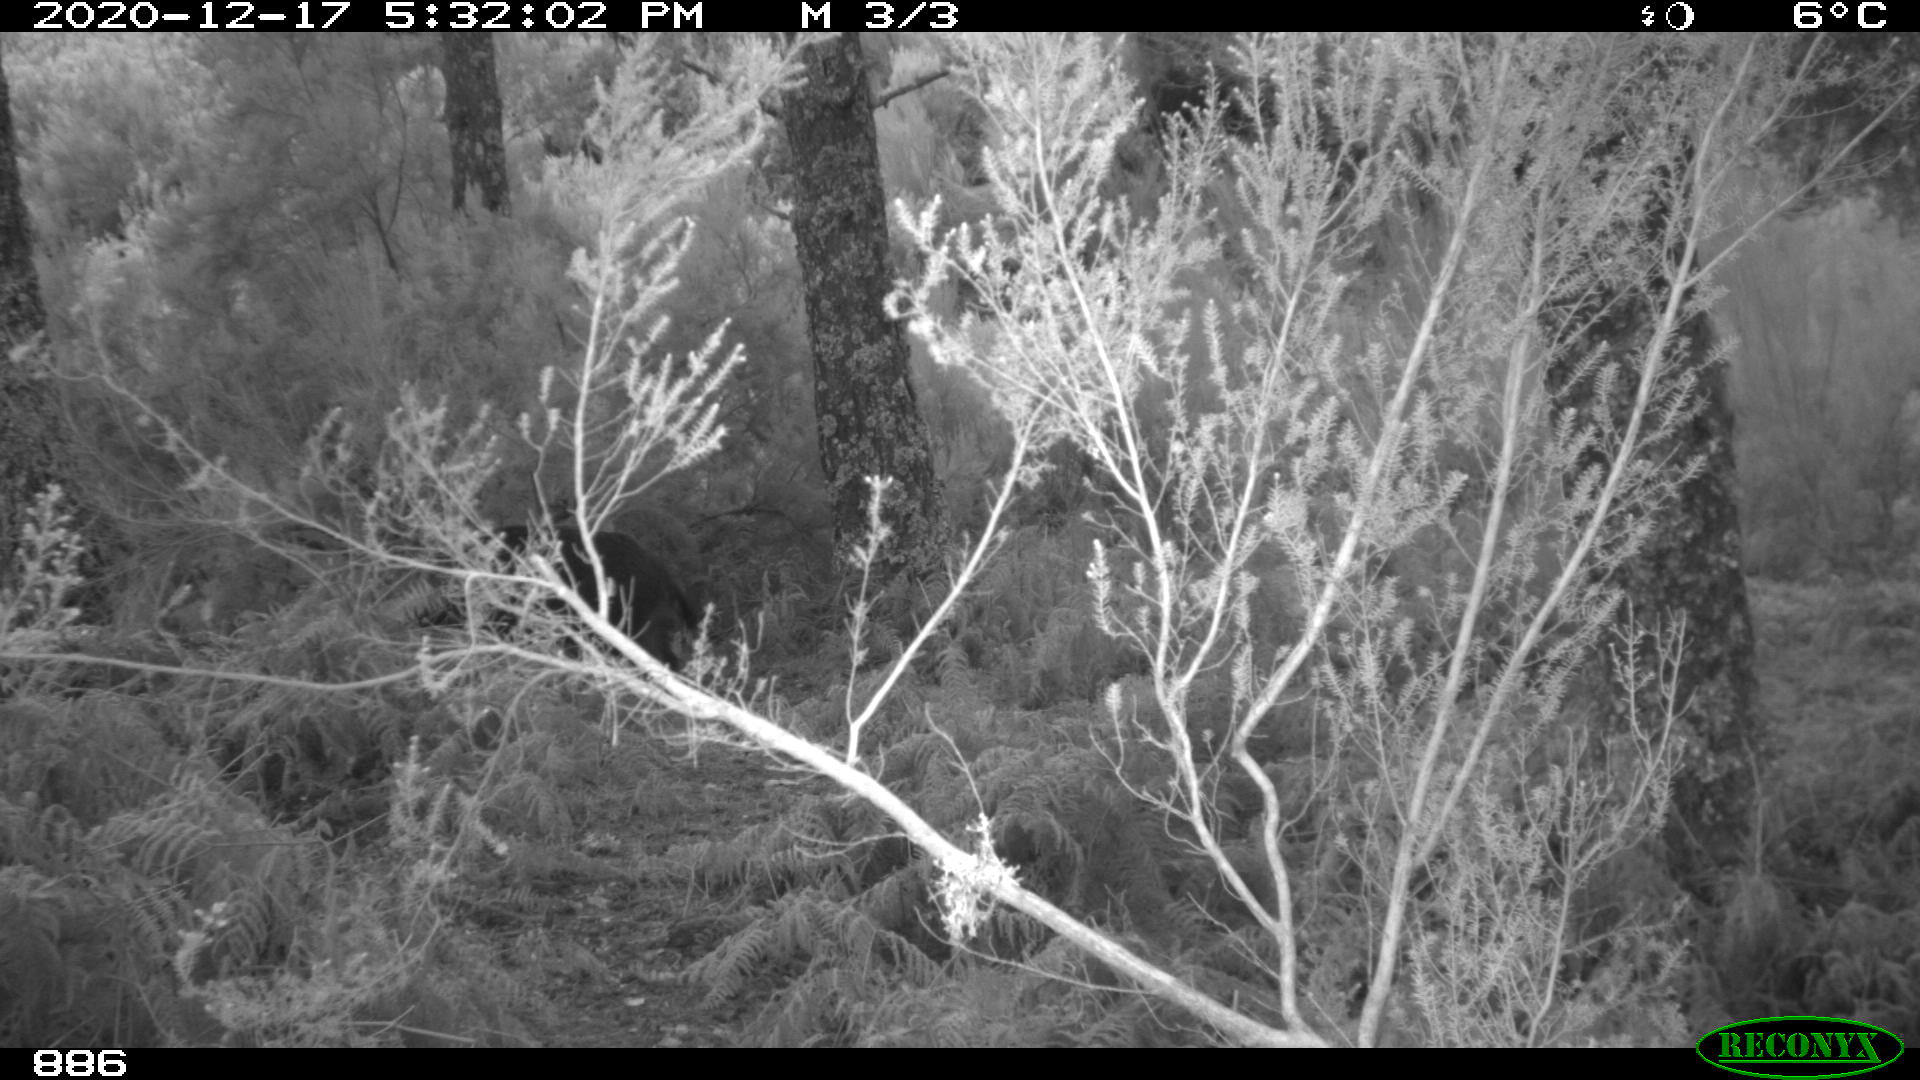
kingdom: Animalia
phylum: Chordata
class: Mammalia
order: Artiodactyla
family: Suidae
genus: Sus
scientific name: Sus scrofa
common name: Wild boar
